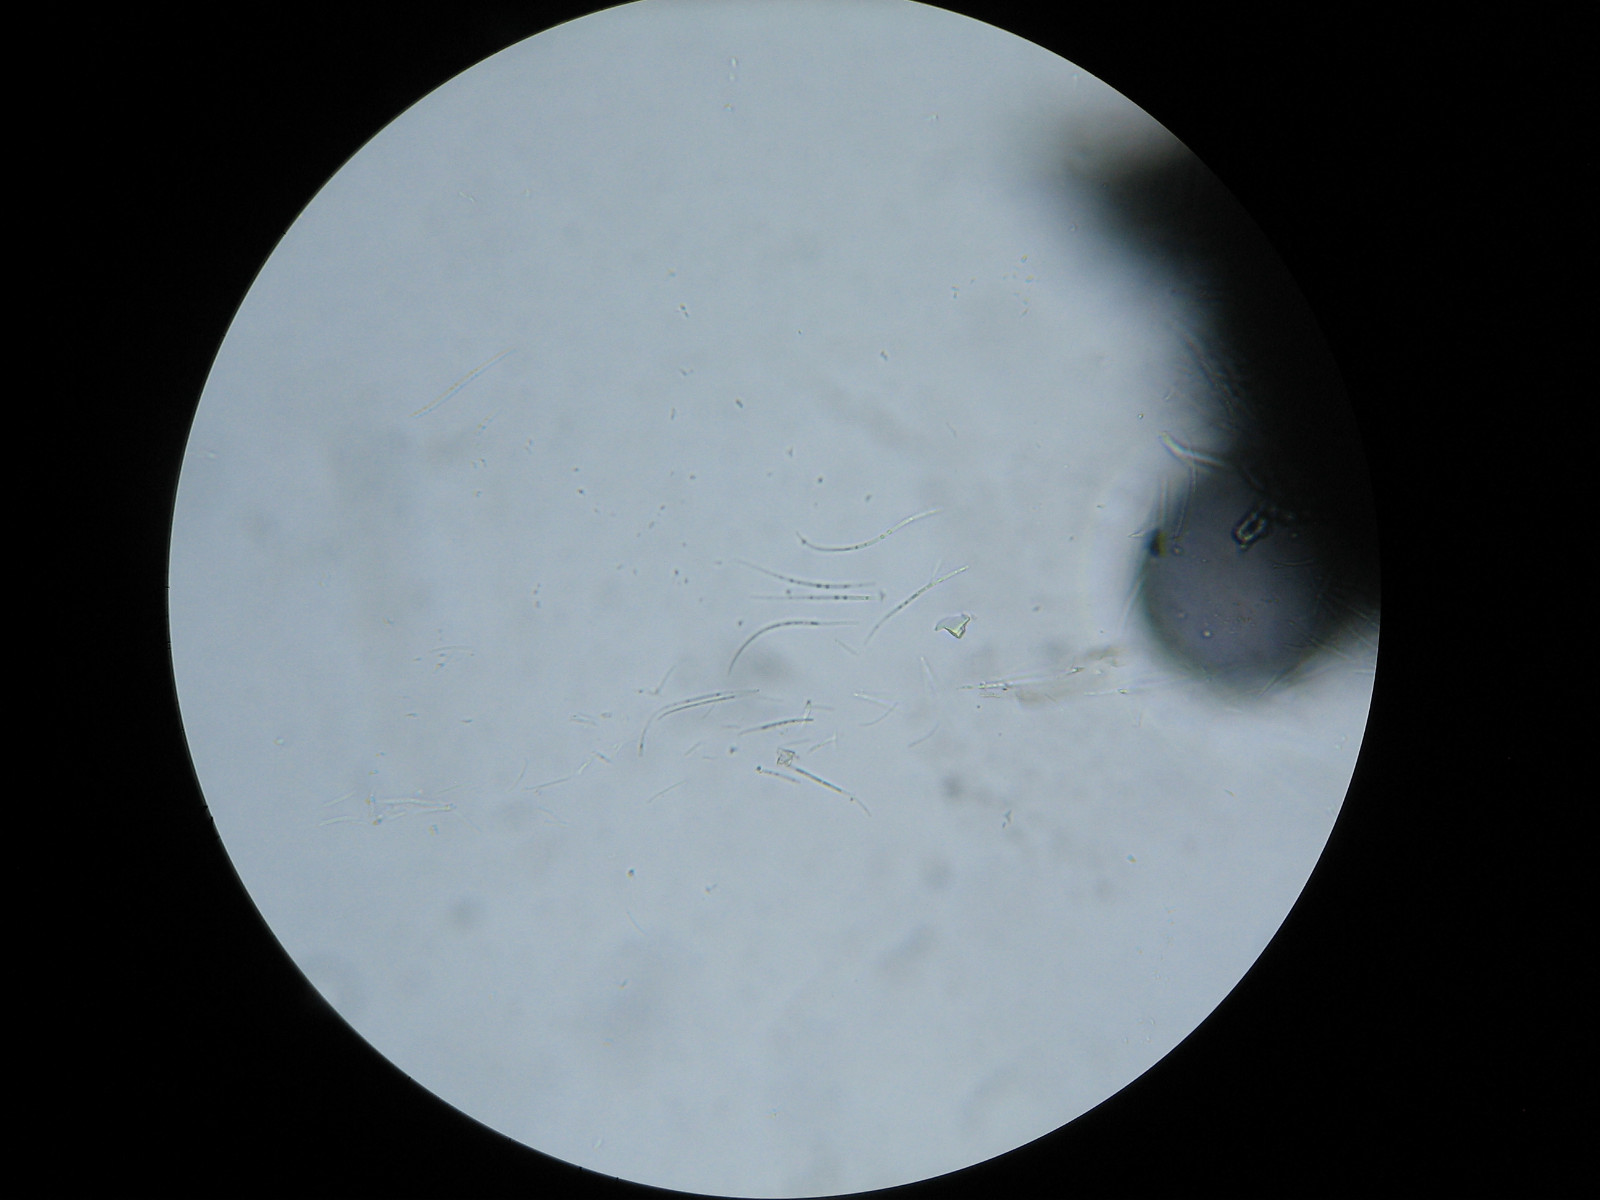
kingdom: Fungi
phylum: Ascomycota
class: Leotiomycetes
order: Rhytismatales
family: Rhytismataceae
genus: Lophodermium
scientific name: Lophodermium apiculatum
